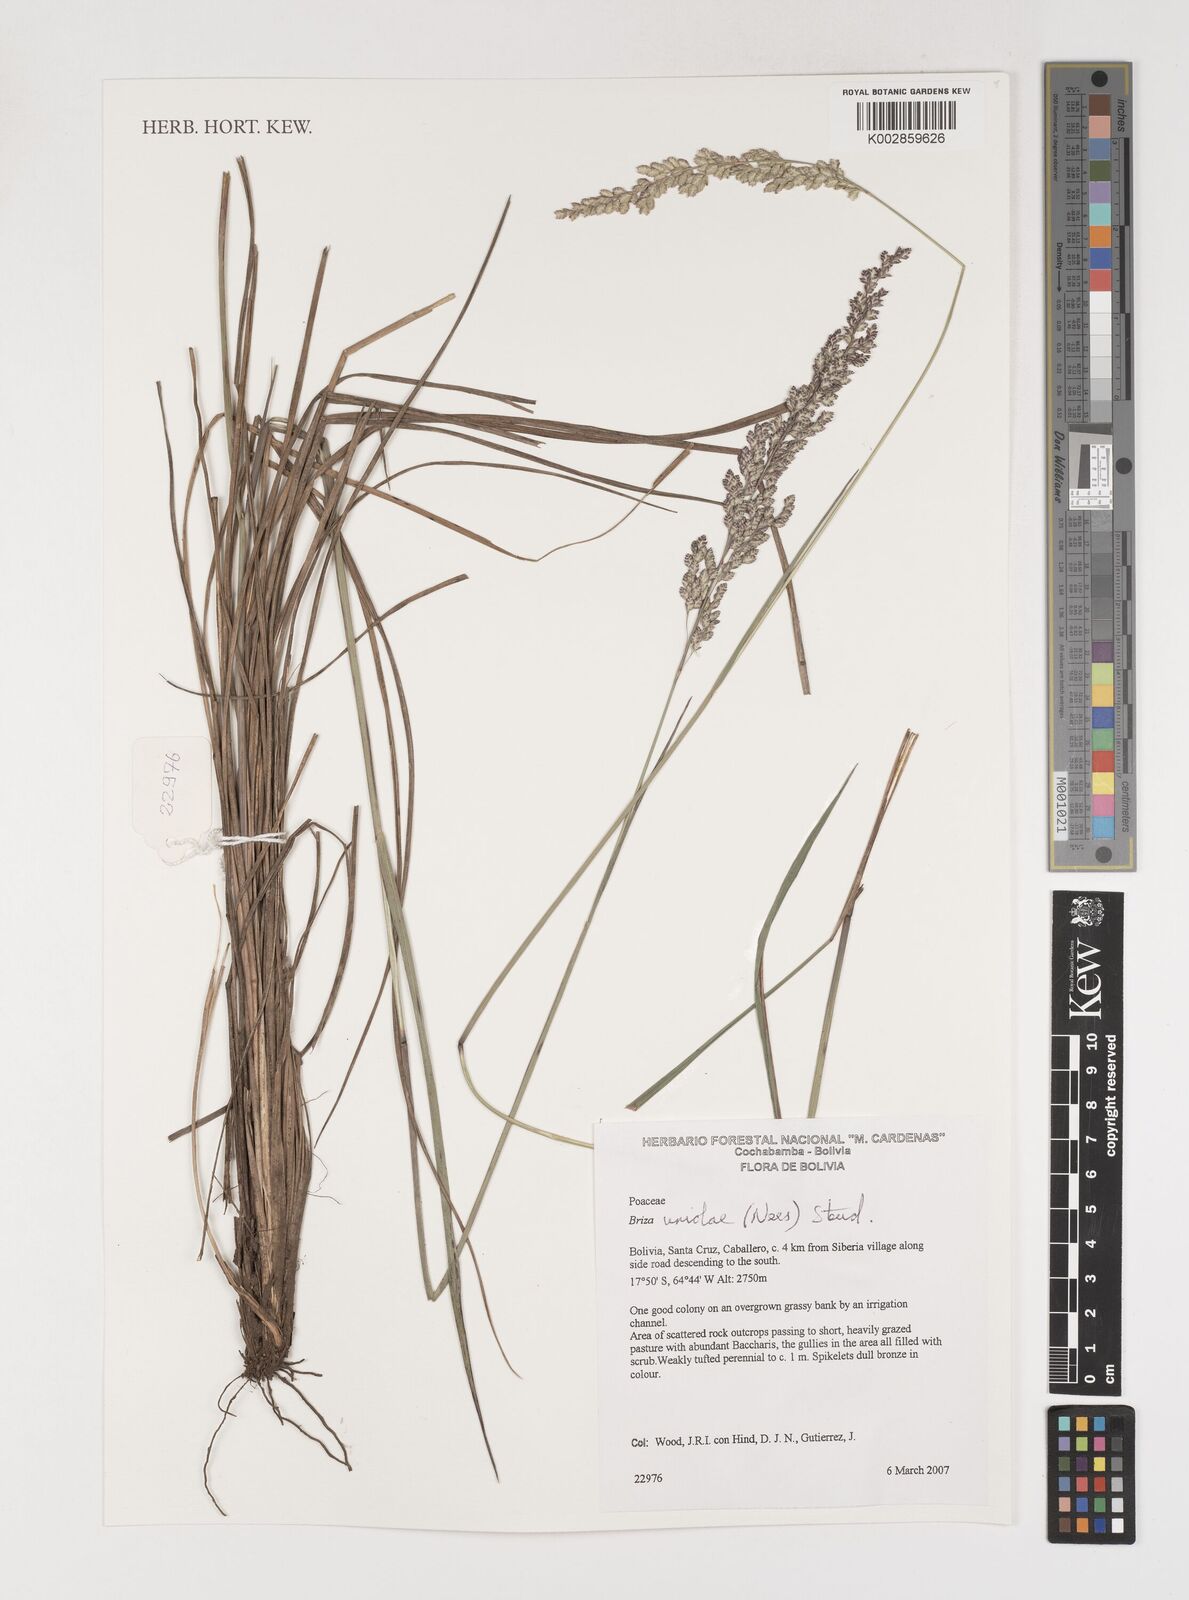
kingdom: Plantae
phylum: Tracheophyta
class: Liliopsida
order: Poales
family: Poaceae
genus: Poidium
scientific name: Poidium uniolae
